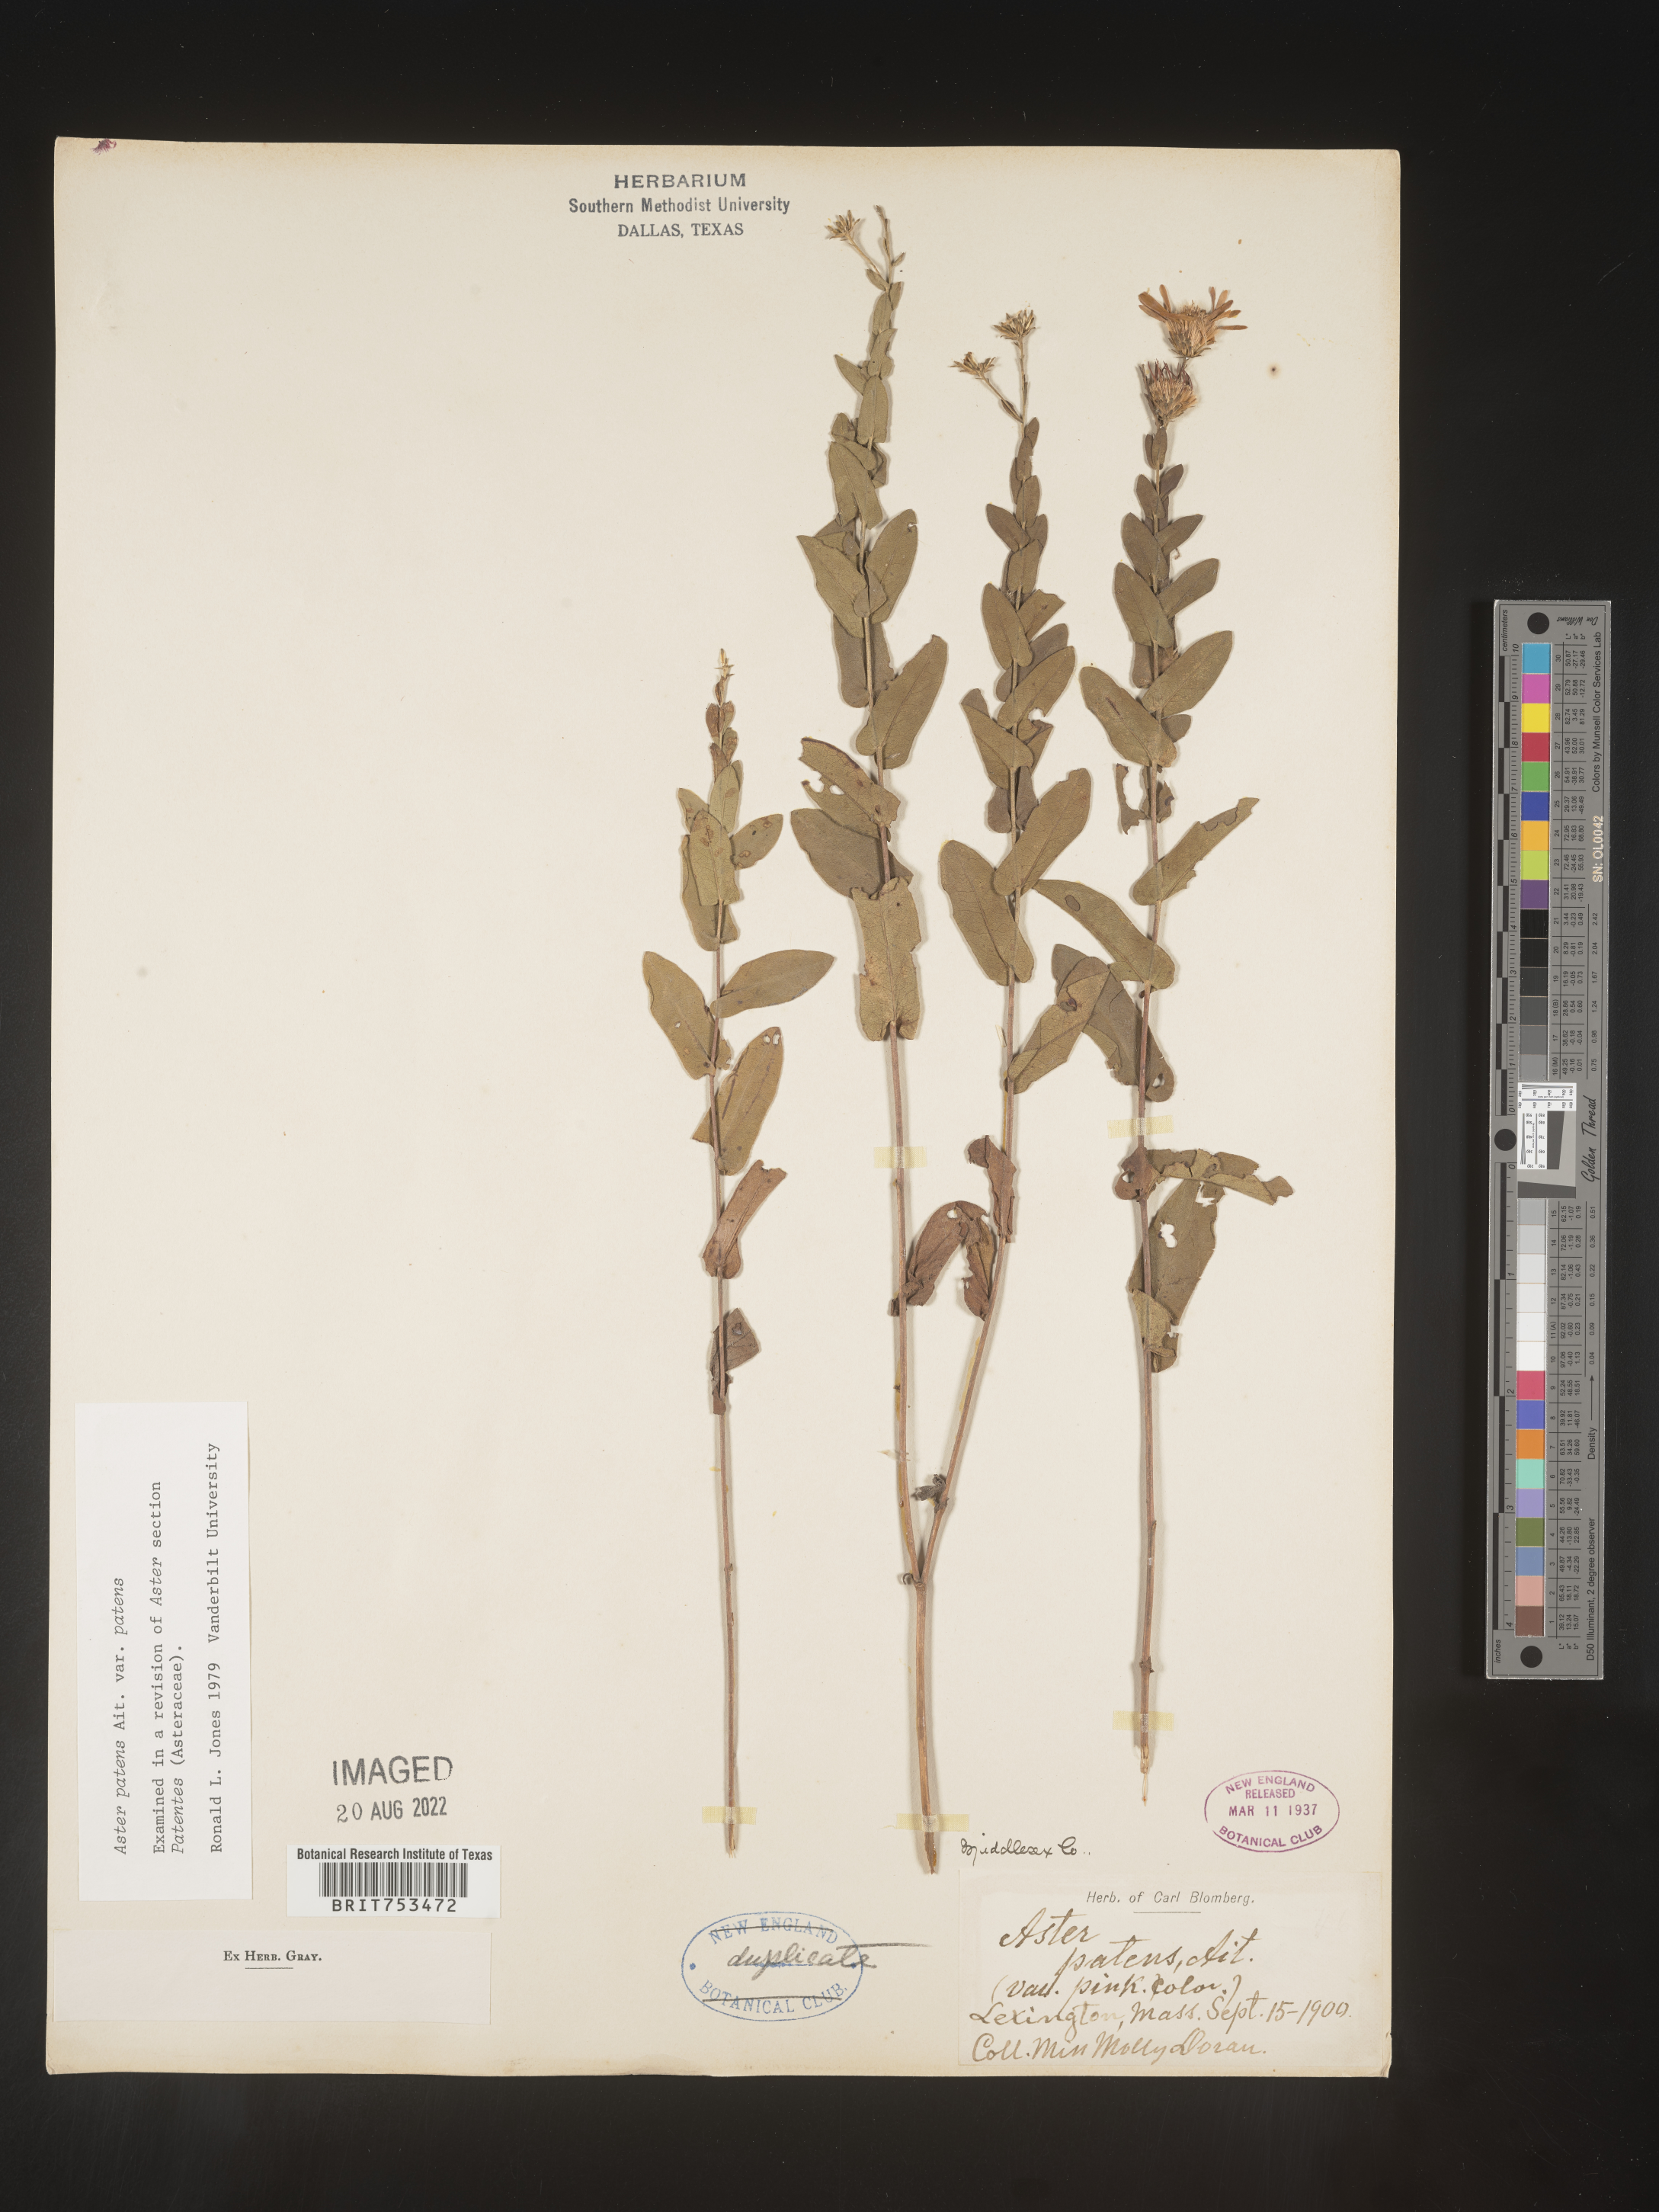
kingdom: Plantae
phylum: Tracheophyta
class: Magnoliopsida
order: Asterales
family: Asteraceae
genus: Symphyotrichum
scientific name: Symphyotrichum patens
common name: Late purple aster
